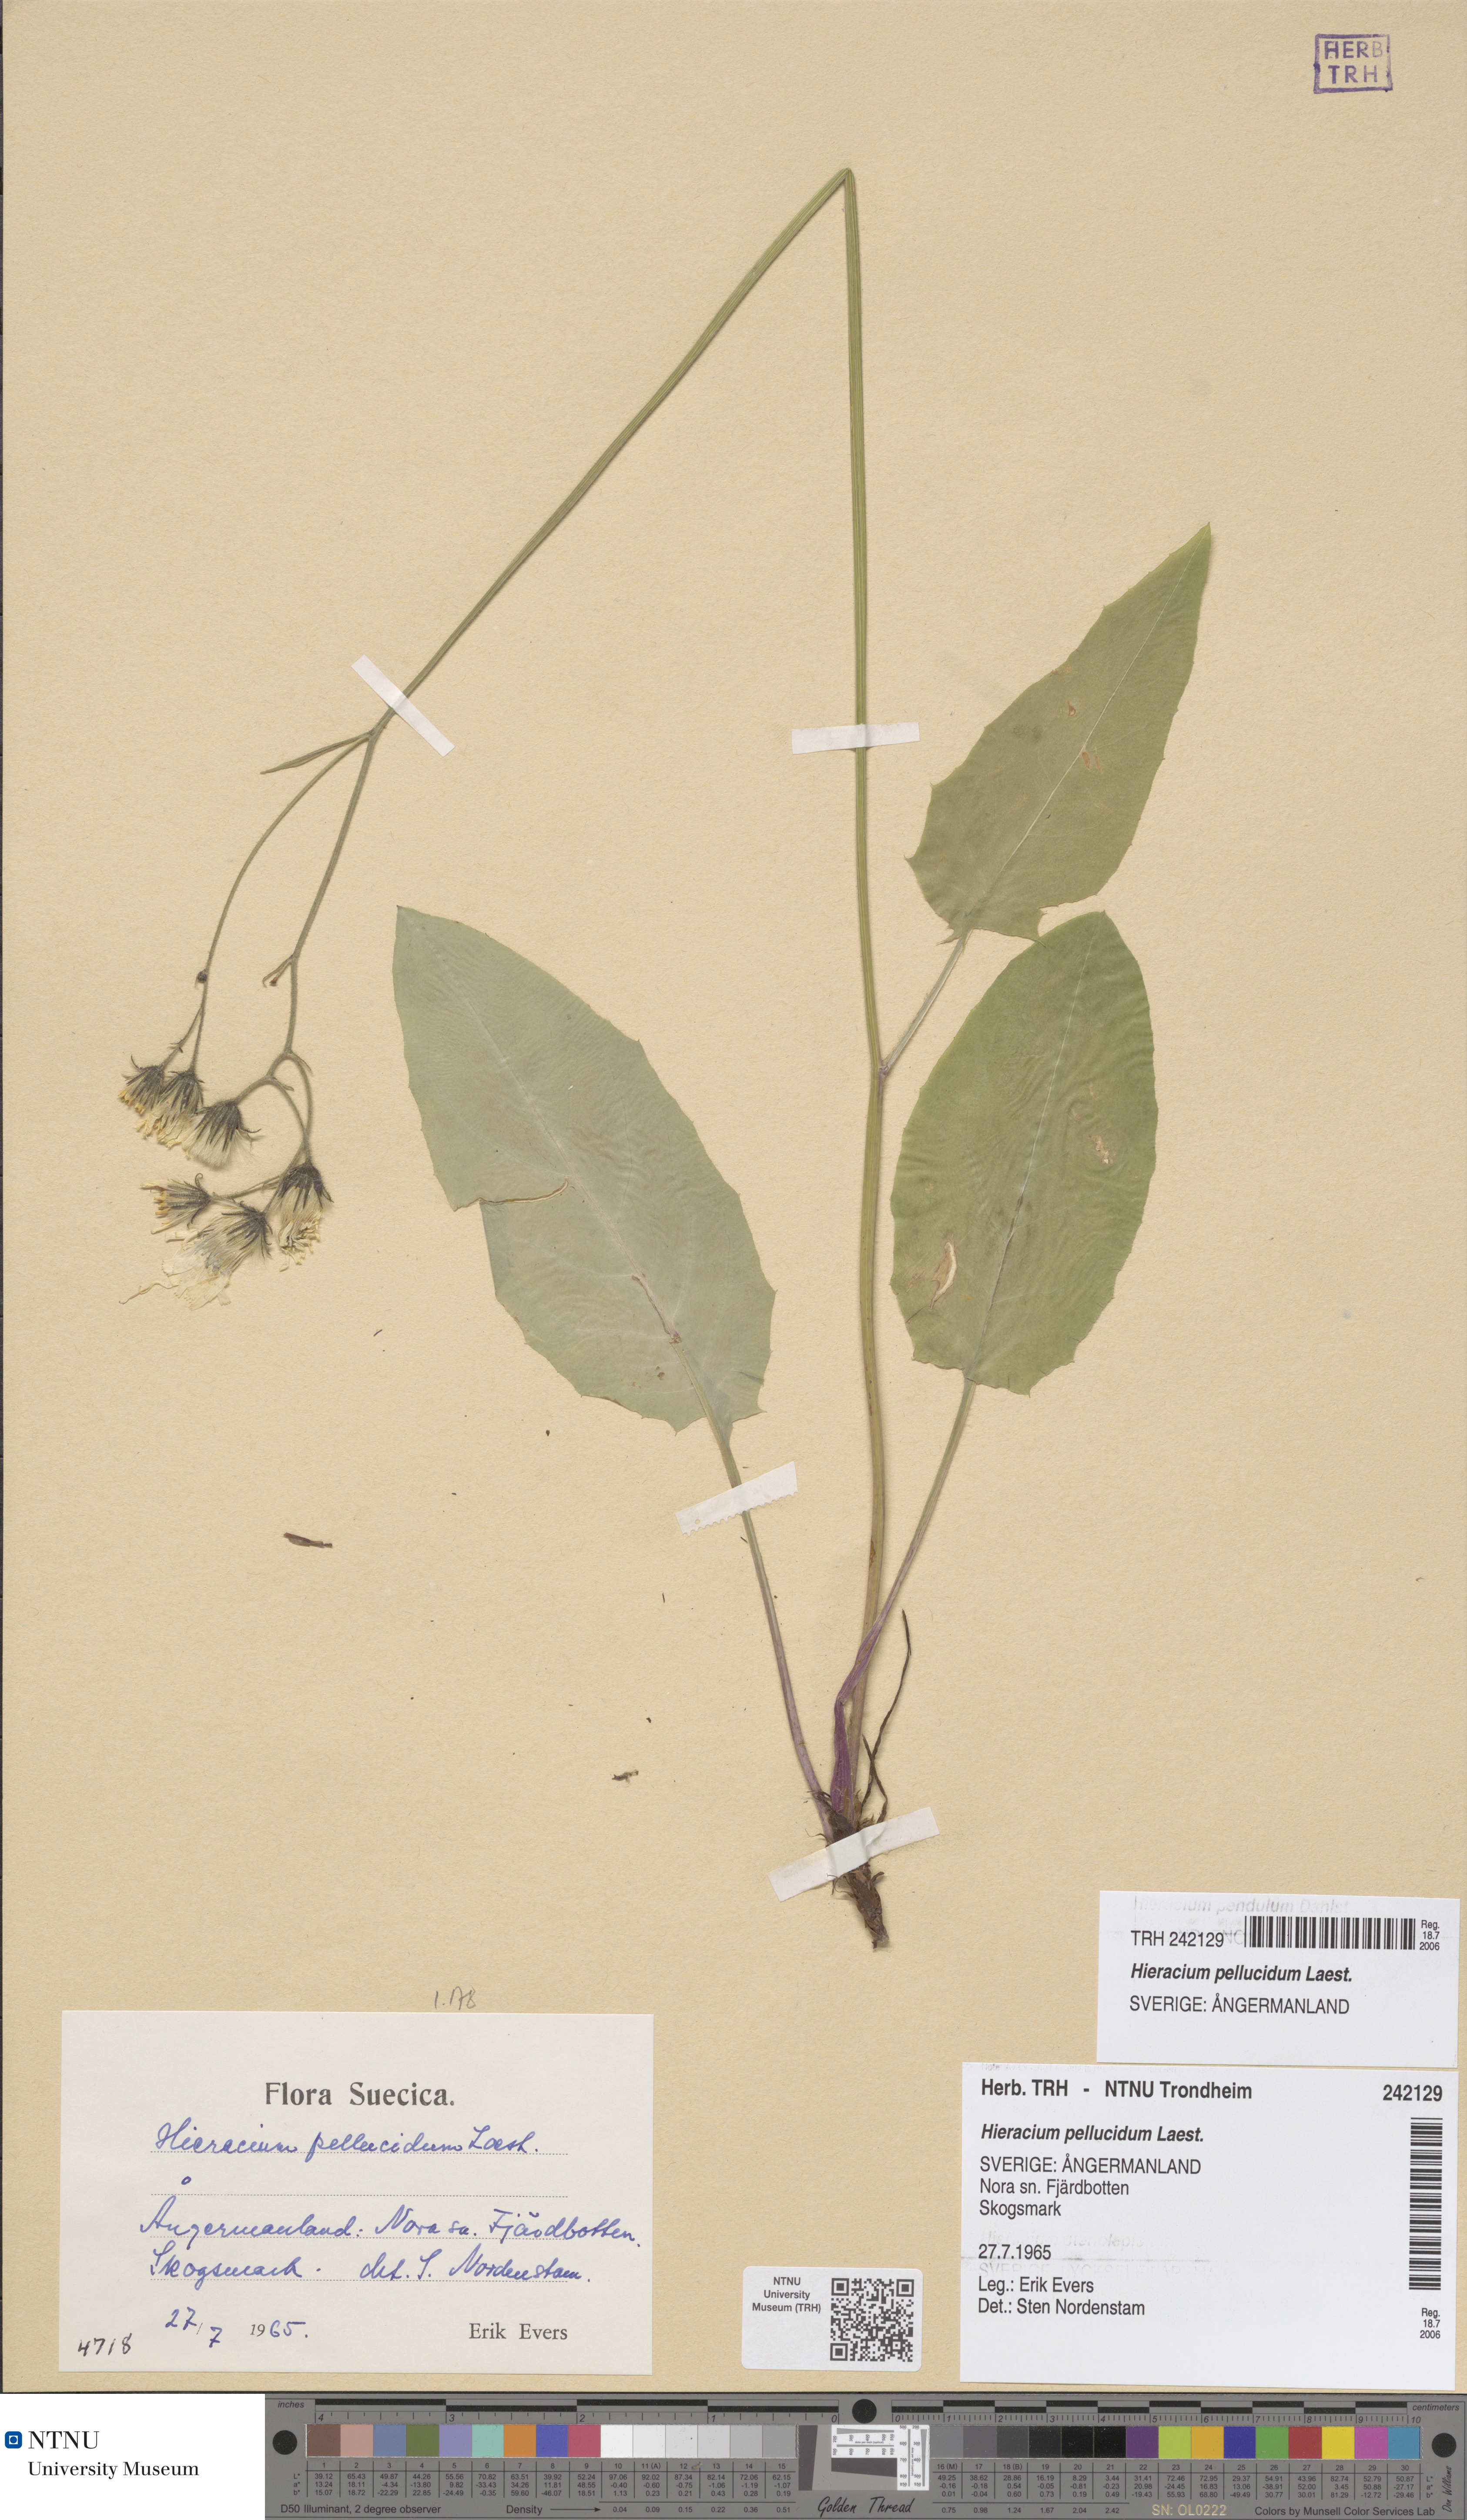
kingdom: Plantae
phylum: Tracheophyta
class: Magnoliopsida
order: Asterales
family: Asteraceae
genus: Hieracium
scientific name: Hieracium
